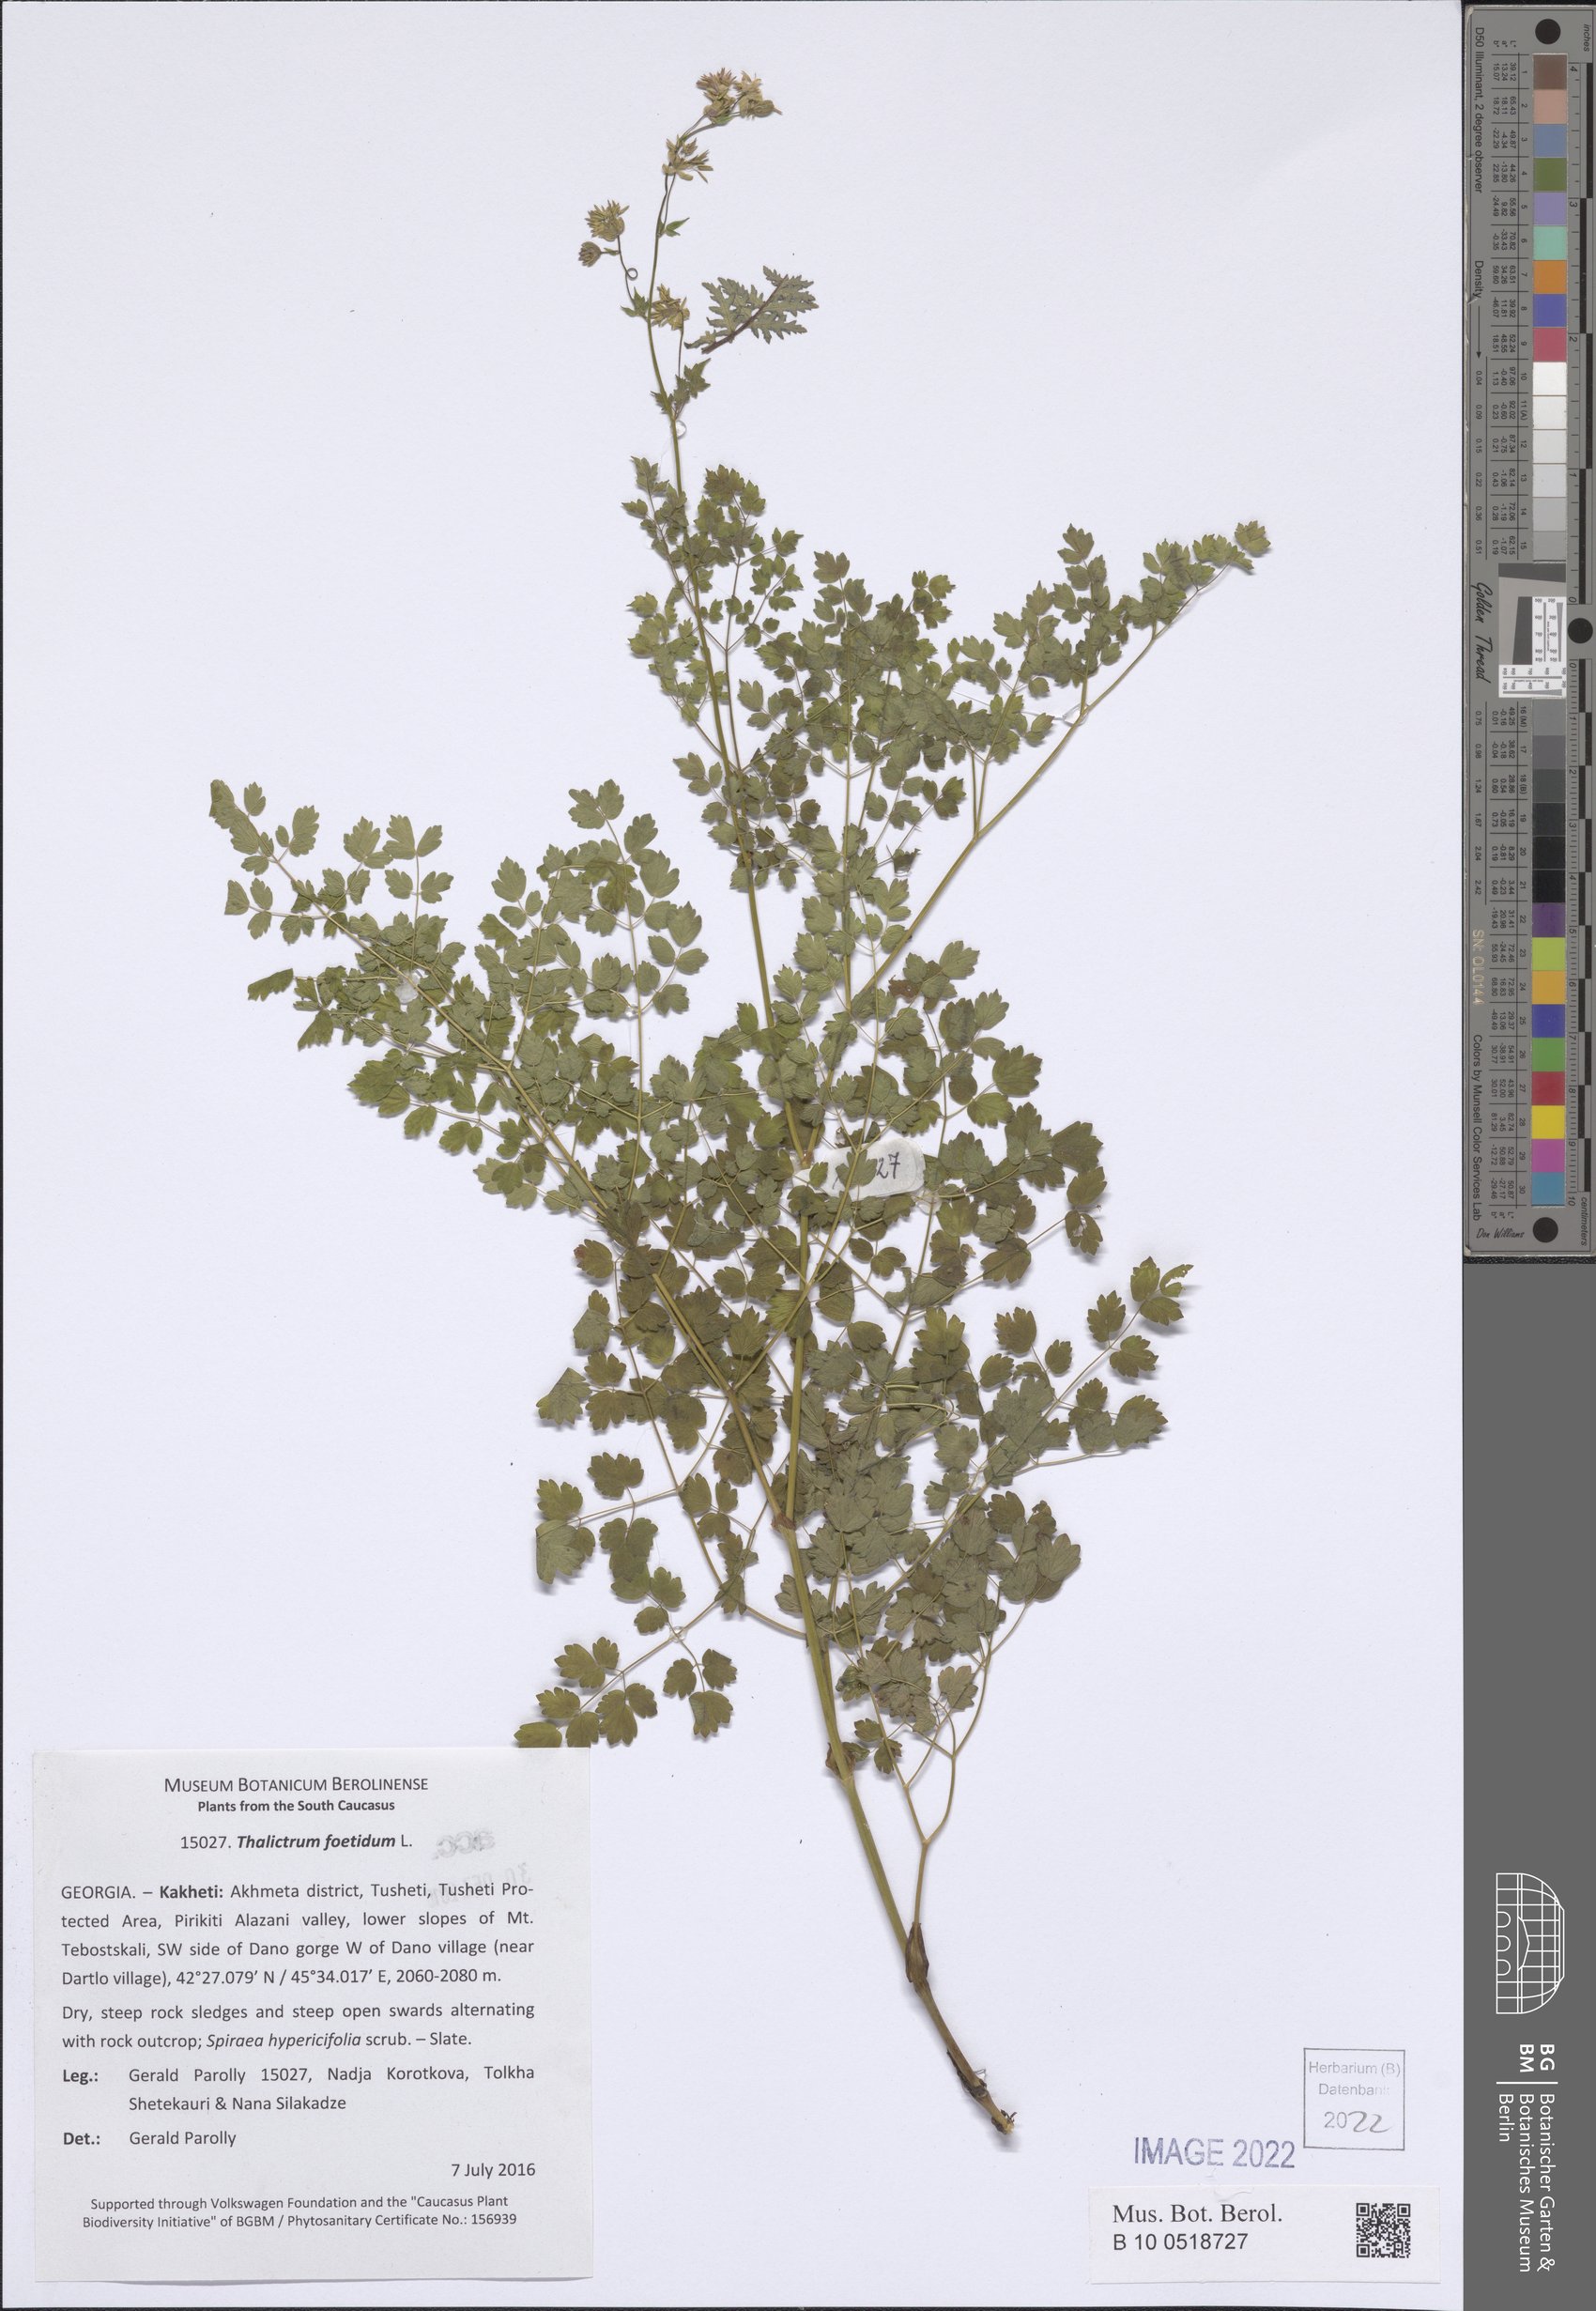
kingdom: Plantae
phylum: Tracheophyta
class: Magnoliopsida
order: Ranunculales
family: Ranunculaceae
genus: Thalictrum
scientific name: Thalictrum foetidum
